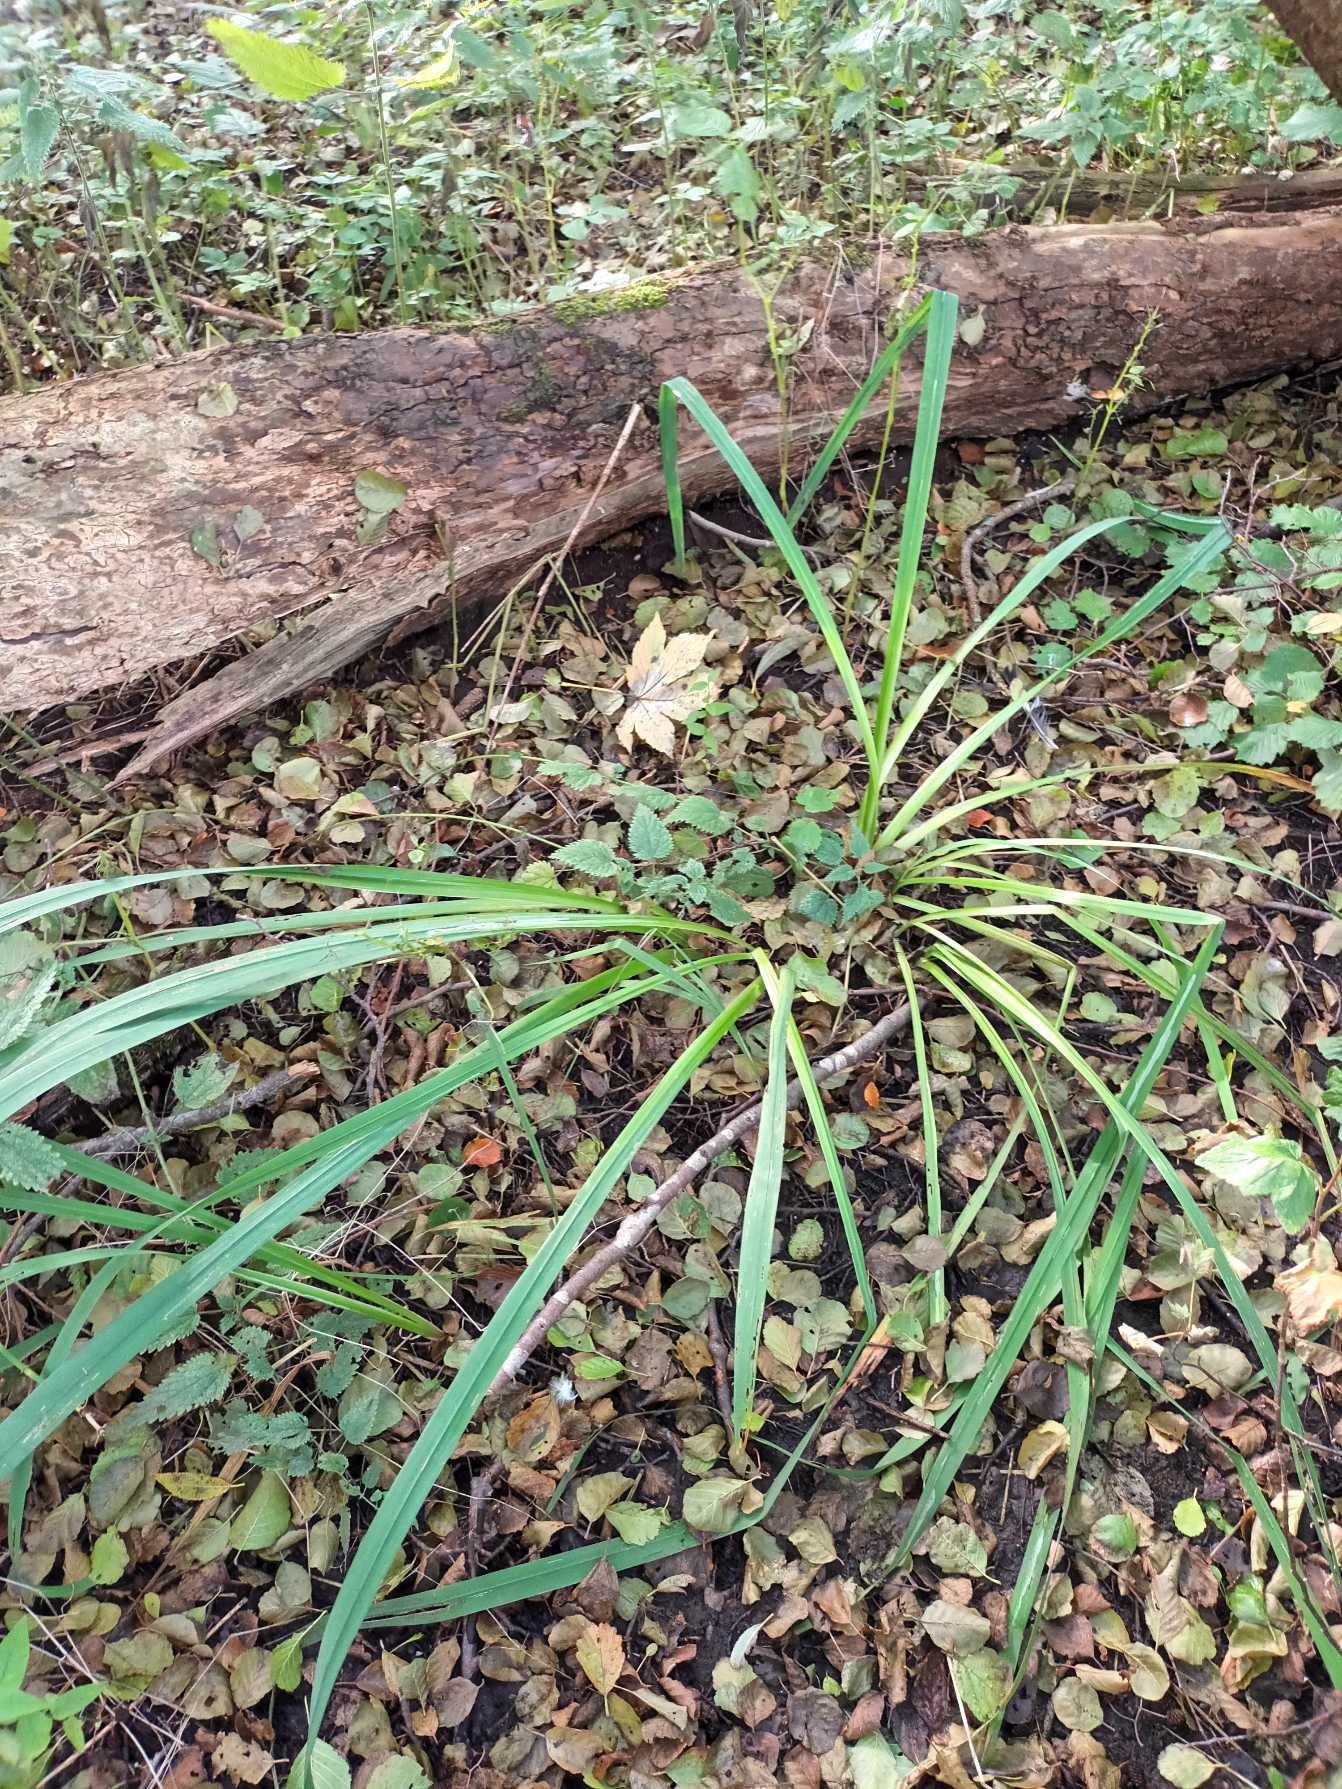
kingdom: Plantae
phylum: Tracheophyta
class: Liliopsida
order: Asparagales
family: Iridaceae
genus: Iris
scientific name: Iris pseudacorus
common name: Gul iris
